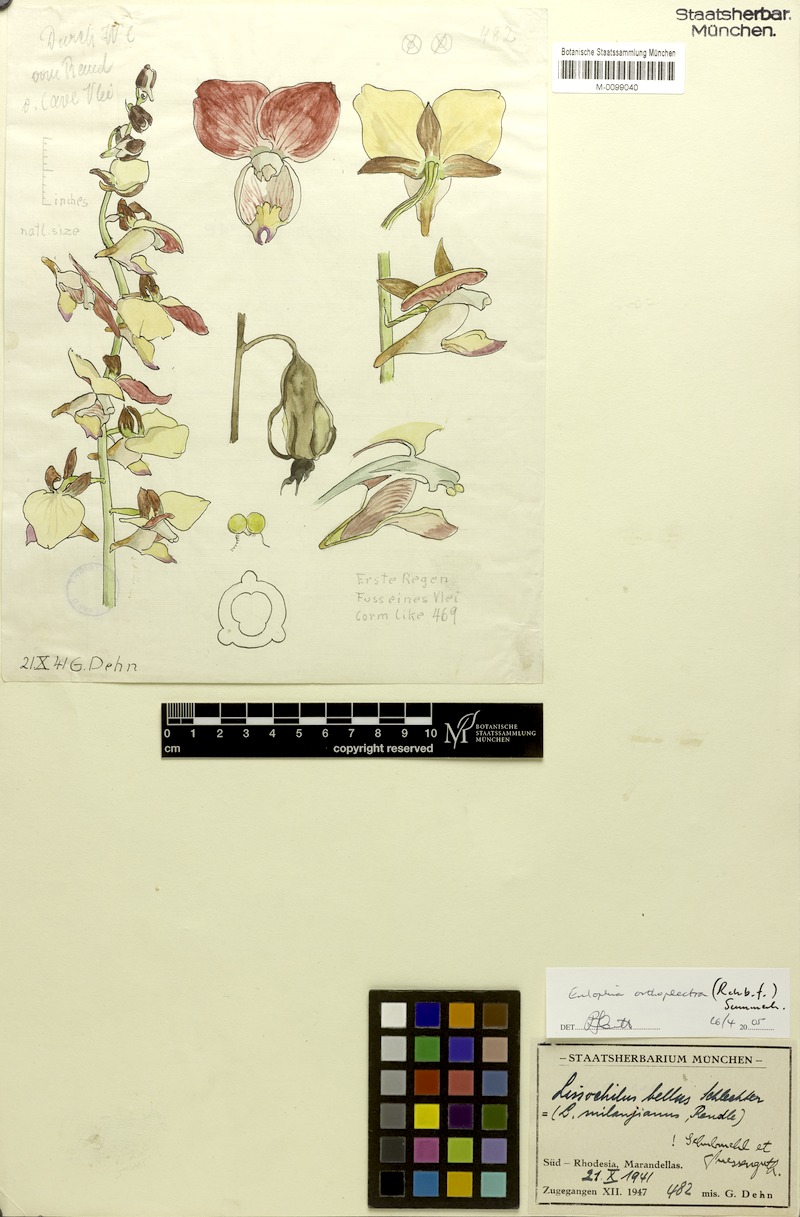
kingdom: Plantae
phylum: Tracheophyta
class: Liliopsida
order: Asparagales
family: Orchidaceae
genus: Eulophia
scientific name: Eulophia orthoplectra
